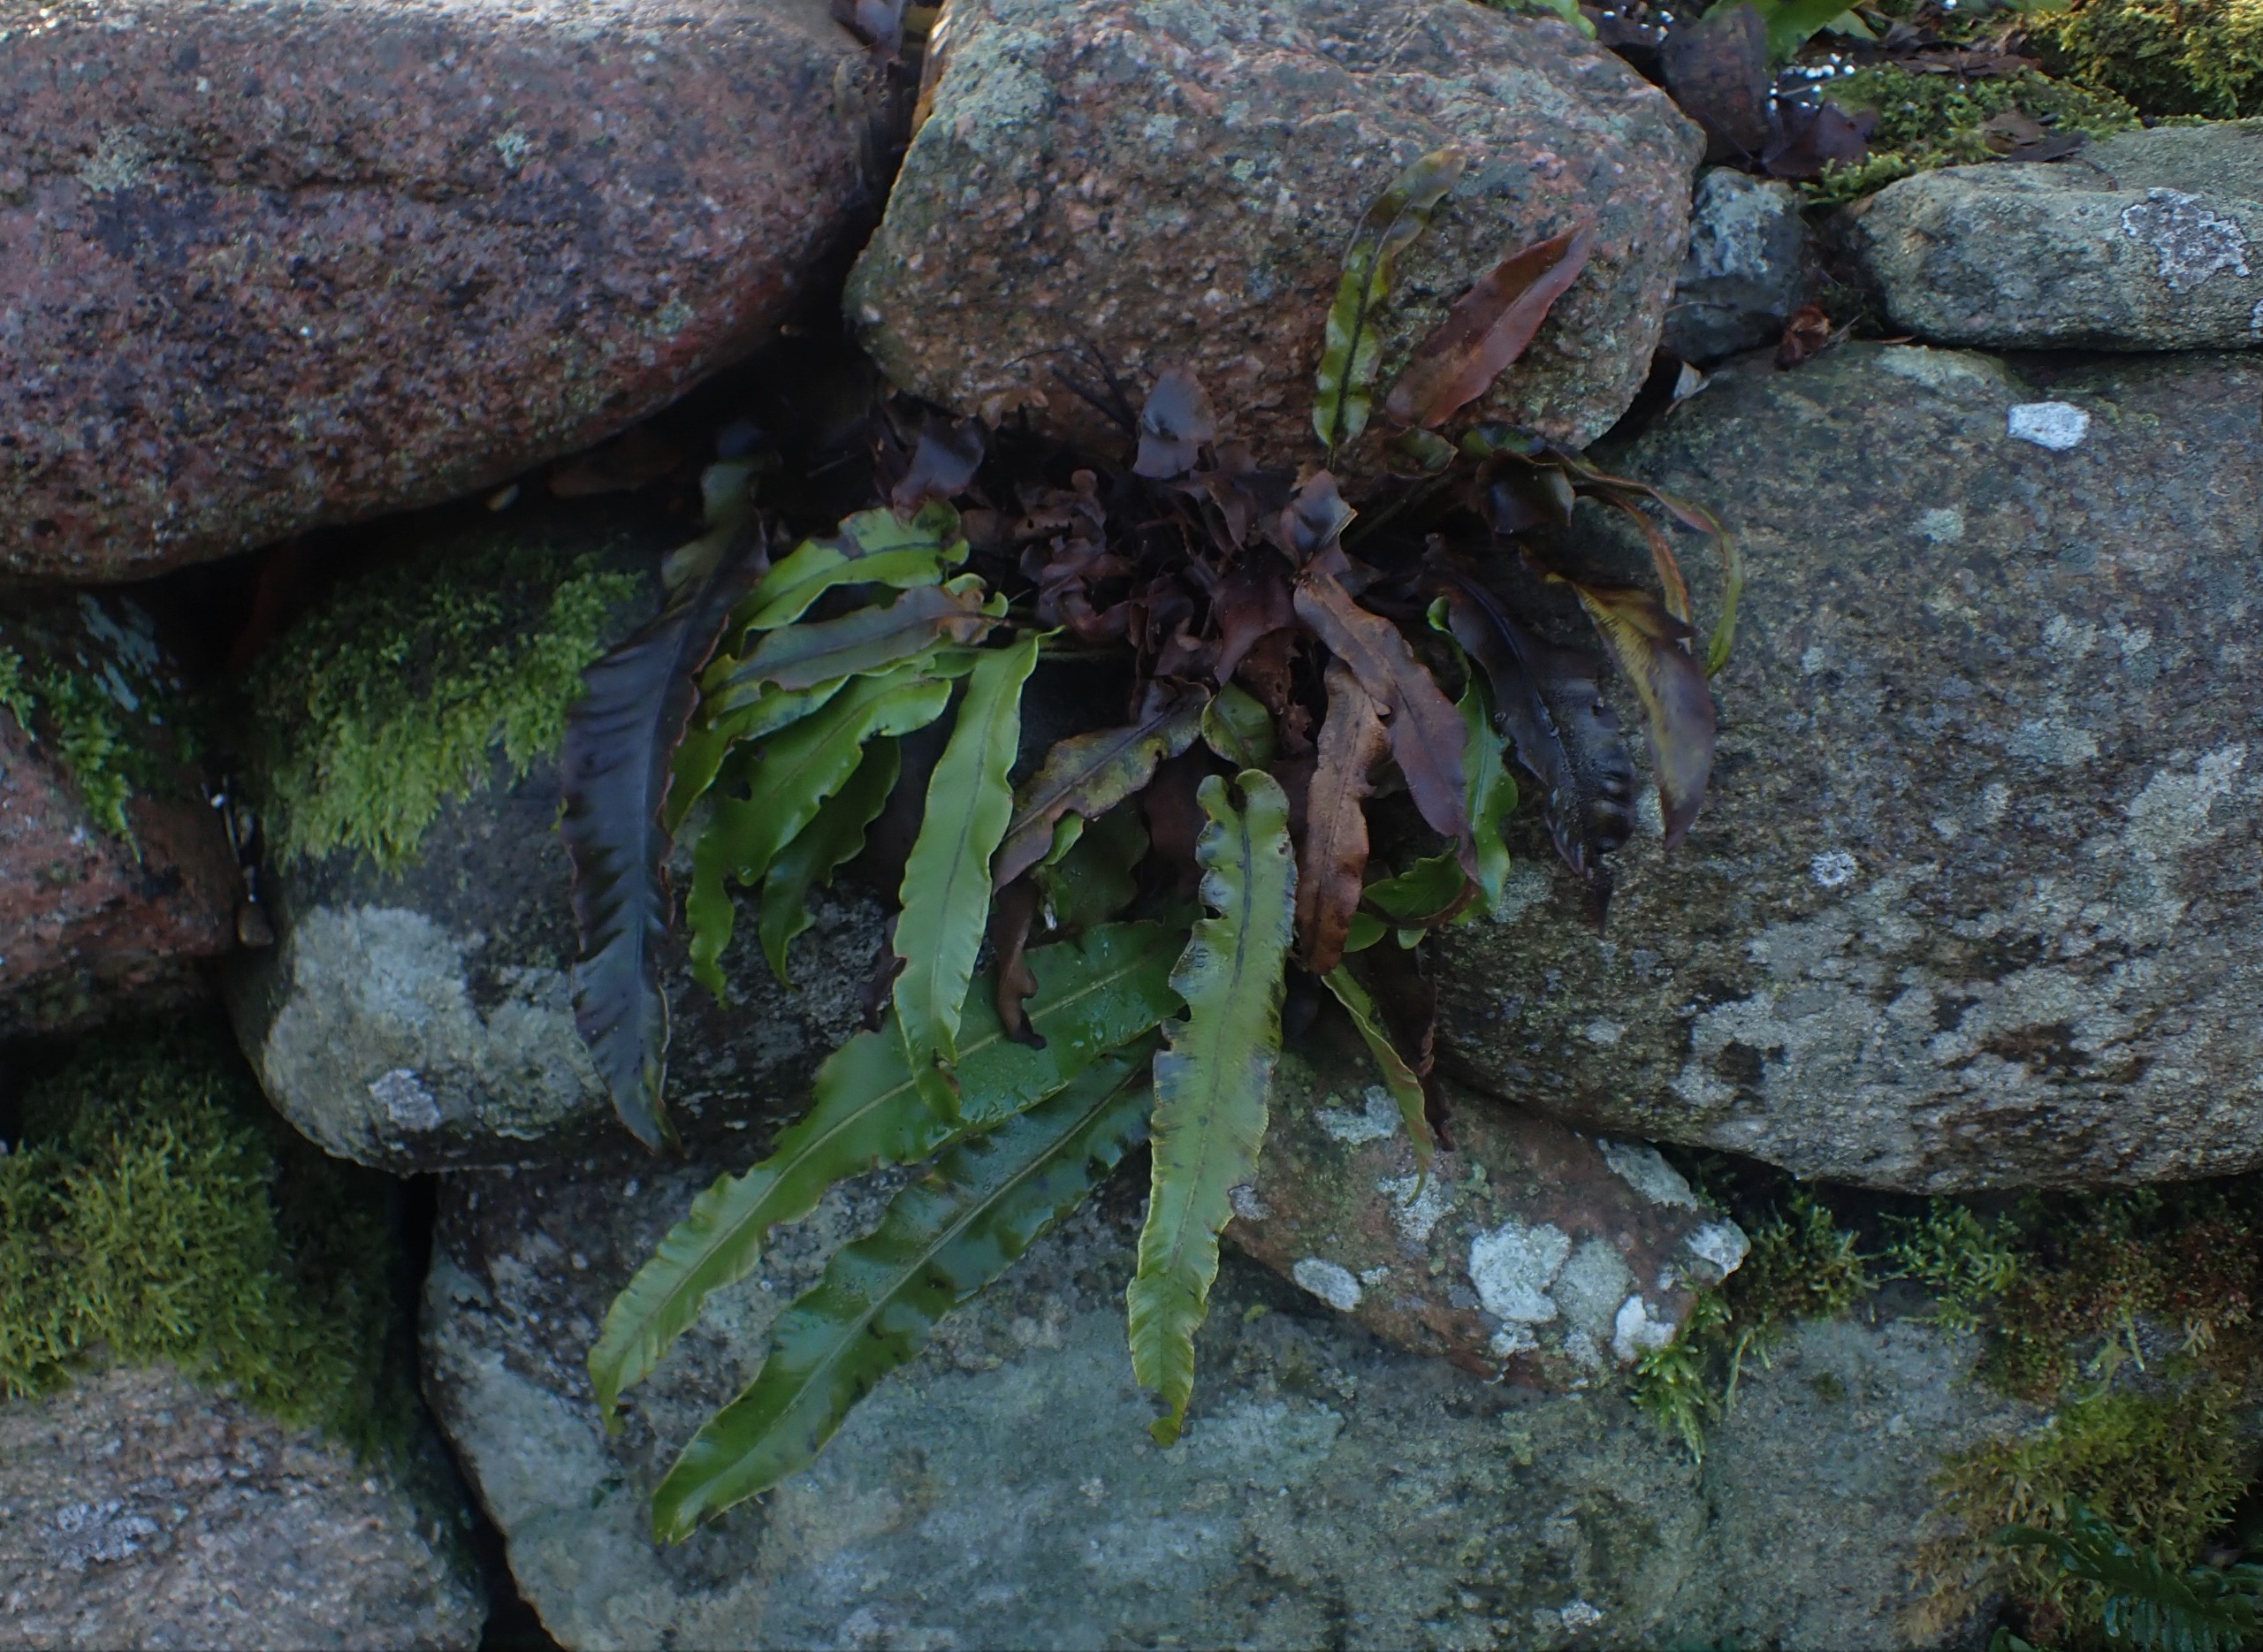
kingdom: Plantae
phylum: Tracheophyta
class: Polypodiopsida
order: Polypodiales
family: Aspleniaceae
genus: Asplenium
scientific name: Asplenium scolopendrium
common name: Hjortetunge
